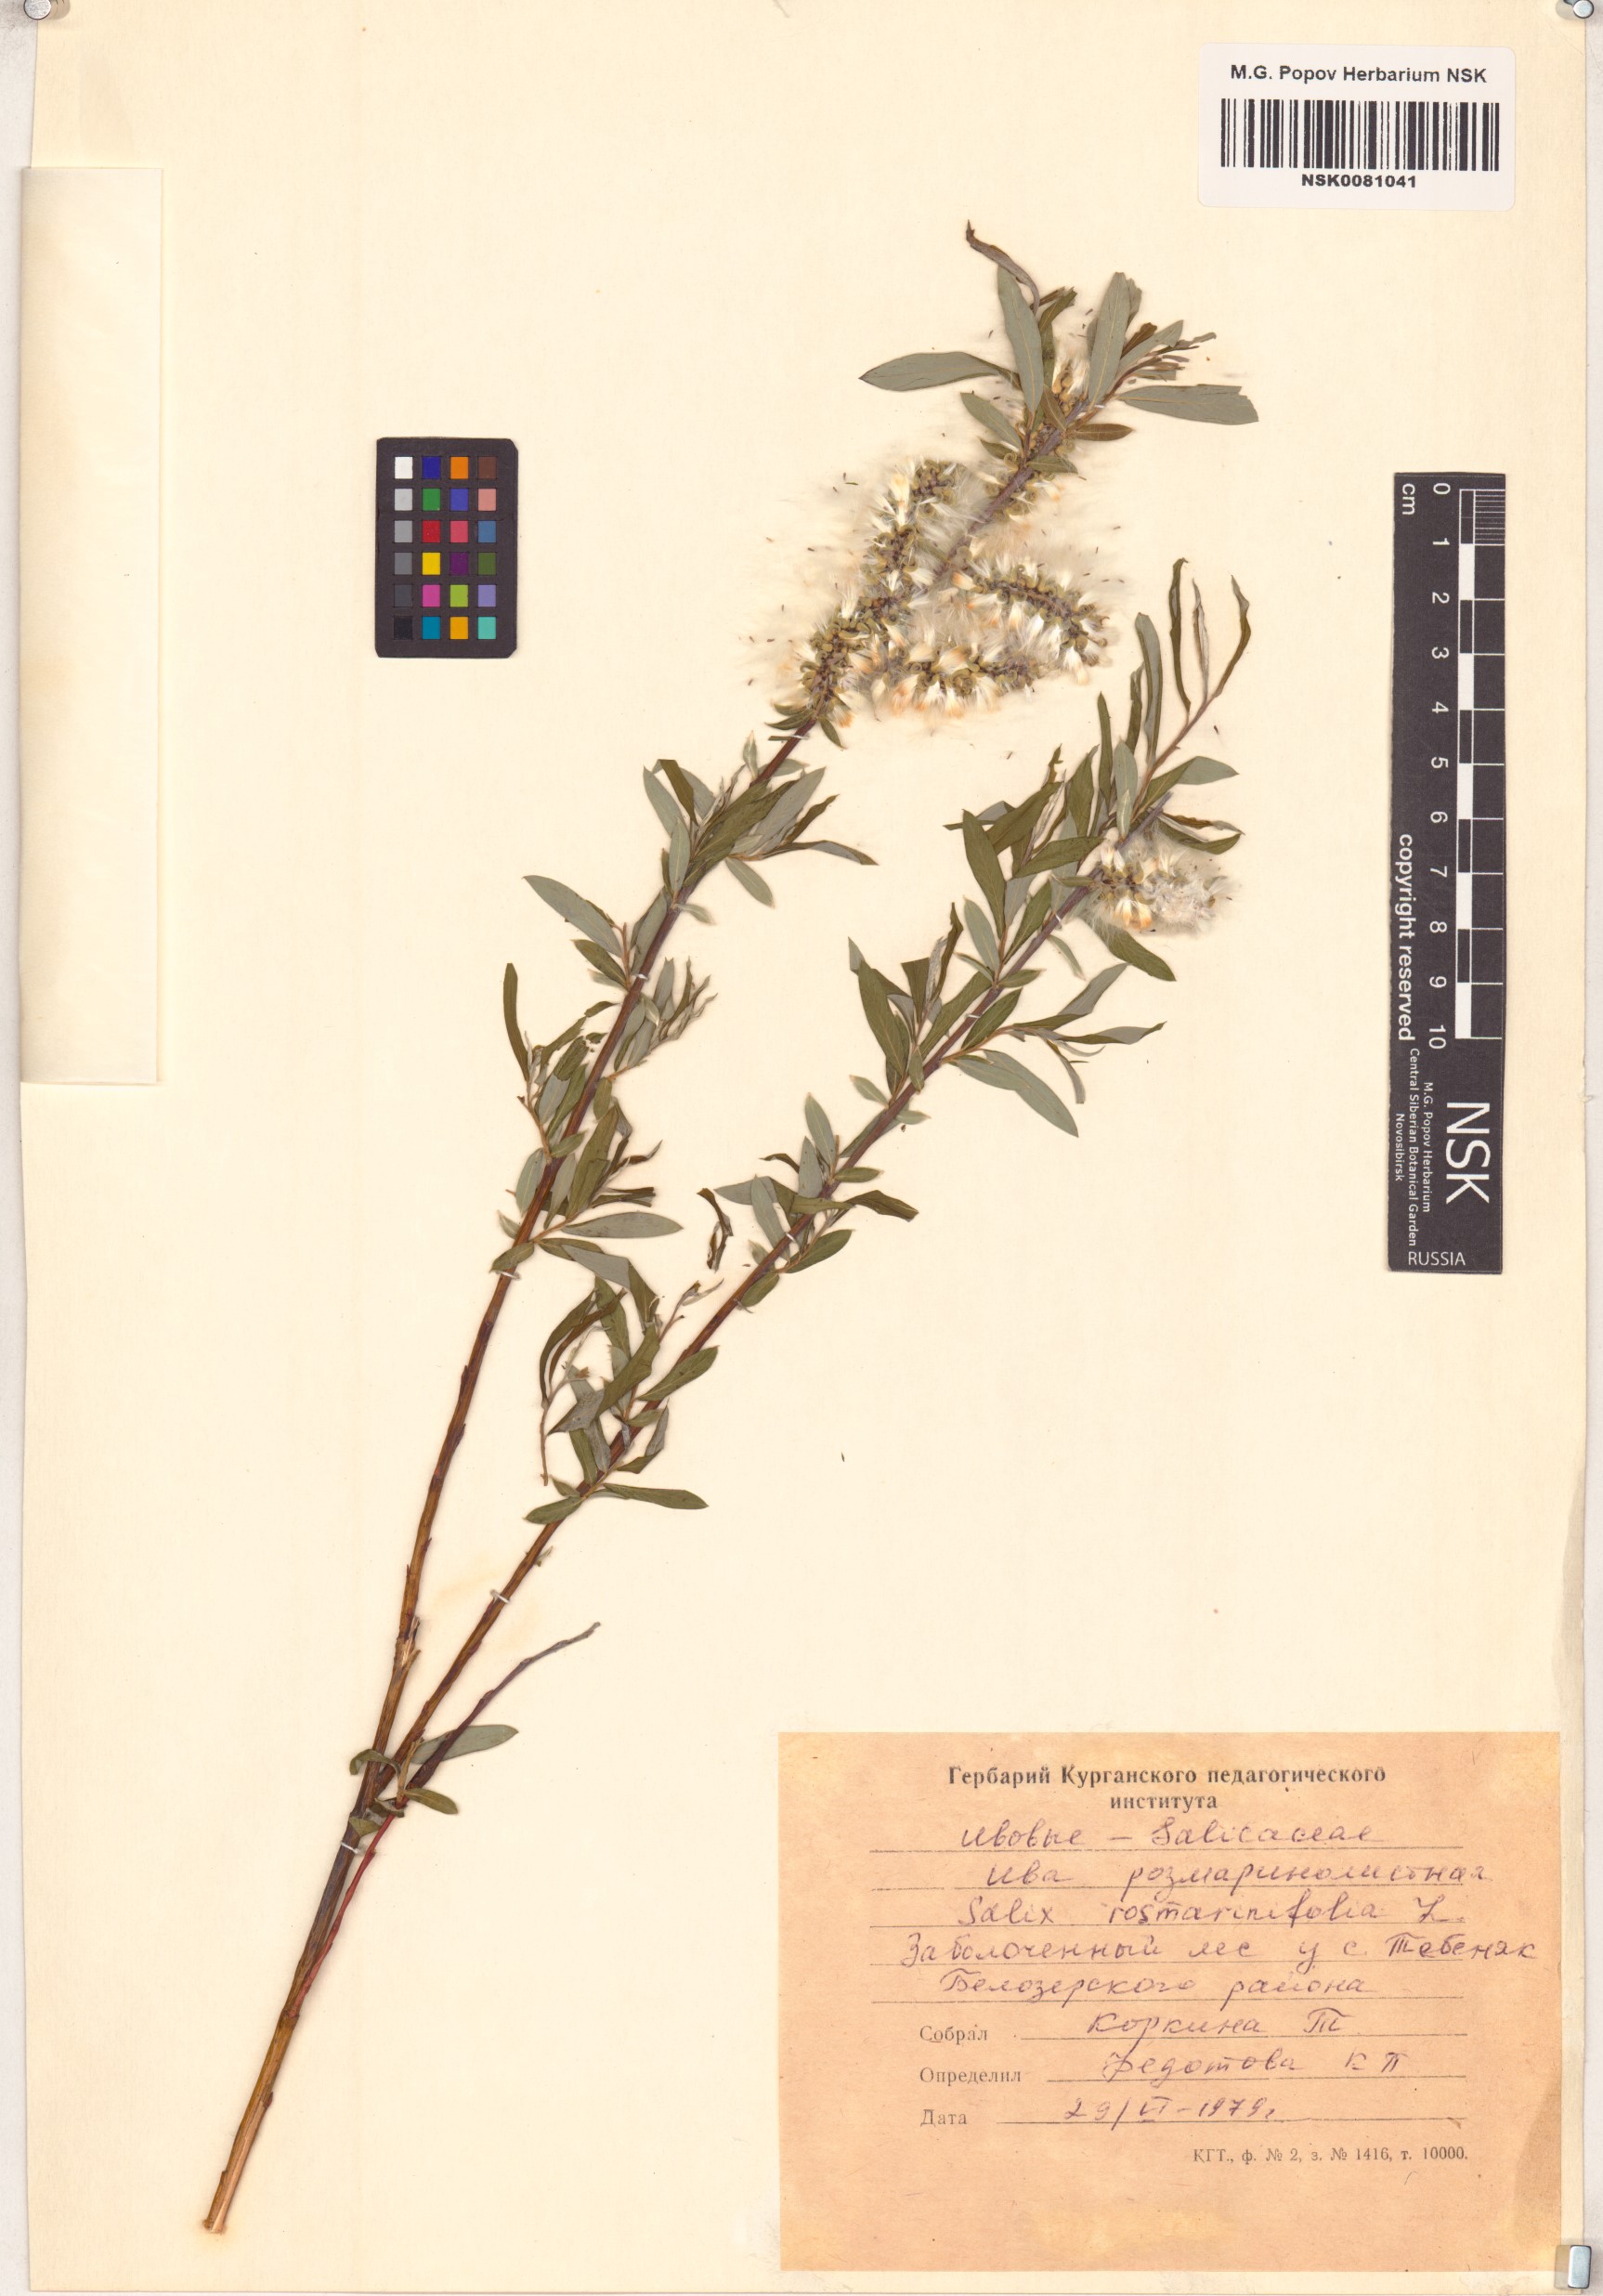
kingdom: Plantae
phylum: Tracheophyta
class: Magnoliopsida
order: Malpighiales
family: Salicaceae
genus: Salix
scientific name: Salix rosmarinifolia
